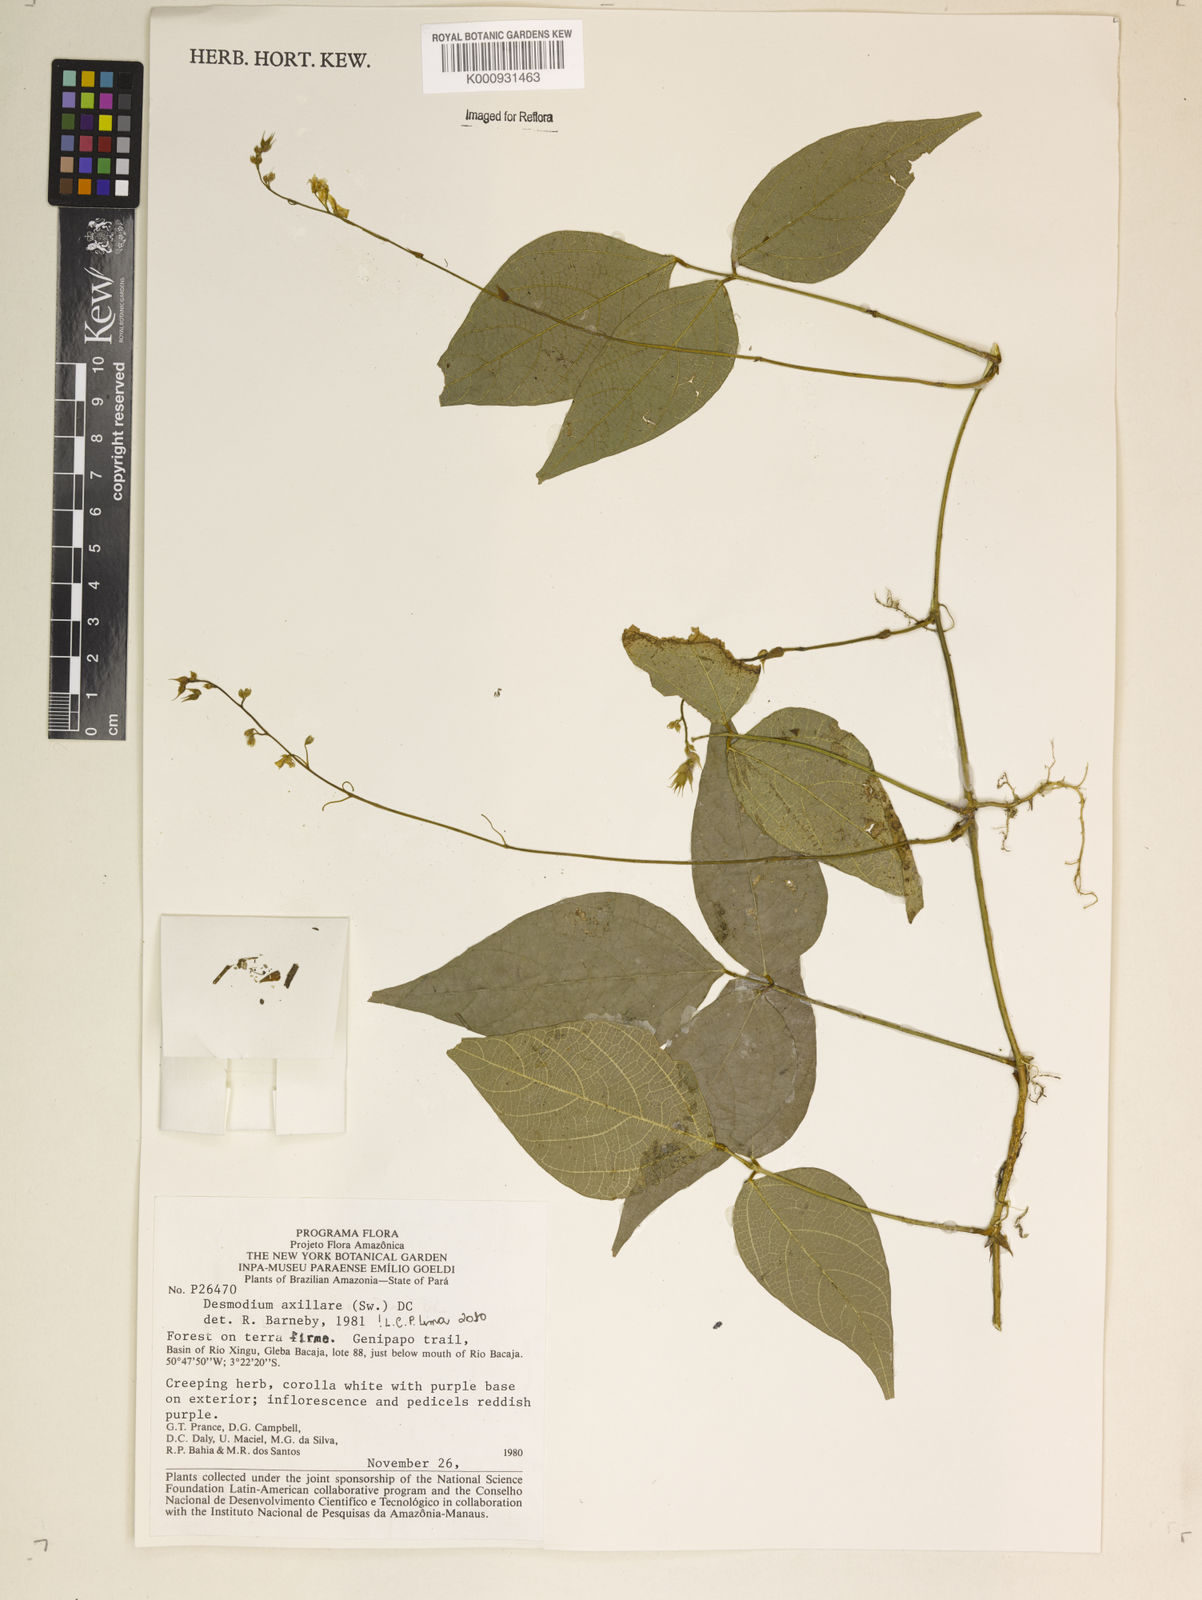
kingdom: Plantae
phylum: Tracheophyta
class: Magnoliopsida
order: Fabales
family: Fabaceae
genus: Desmodium
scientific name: Desmodium axillare
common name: Wire with
